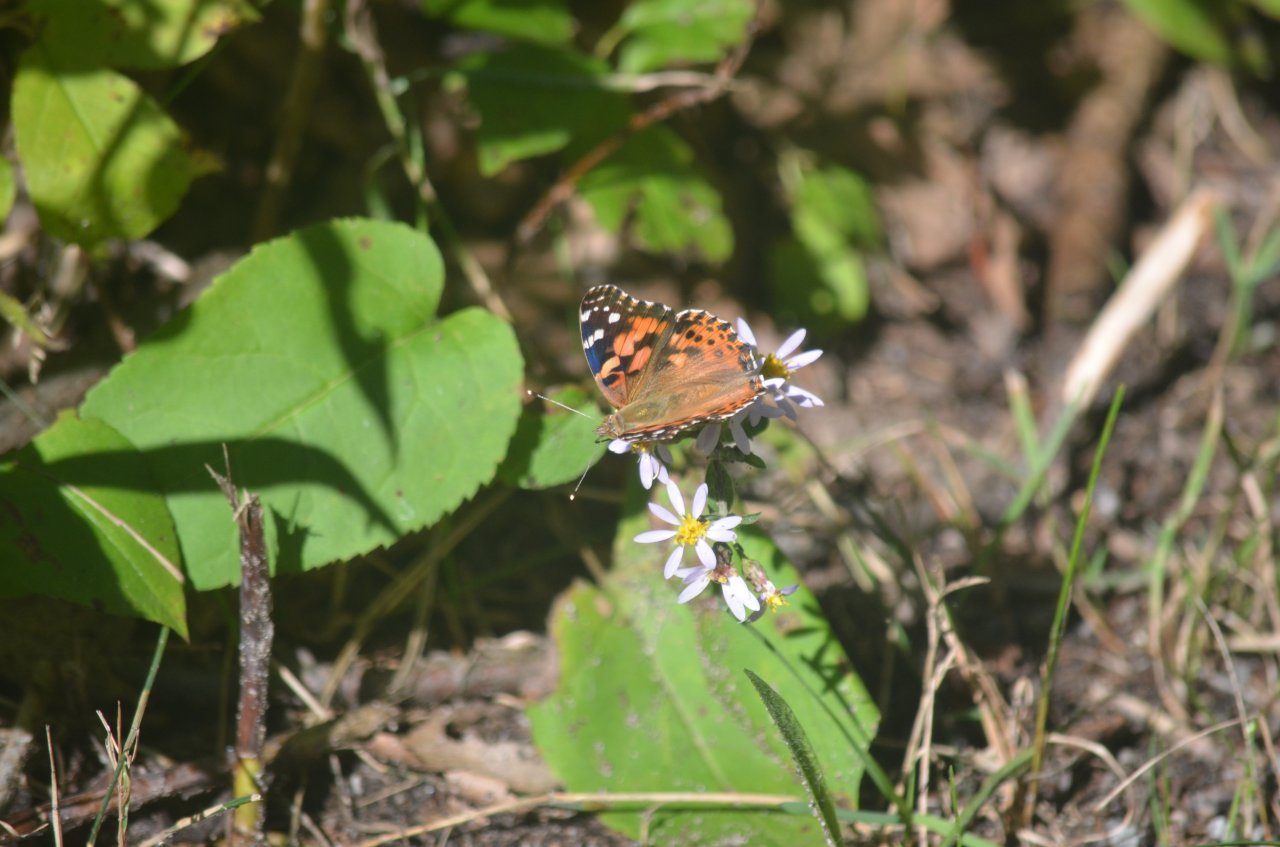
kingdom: Animalia
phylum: Arthropoda
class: Insecta
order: Lepidoptera
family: Nymphalidae
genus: Vanessa
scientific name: Vanessa cardui
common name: Painted Lady
